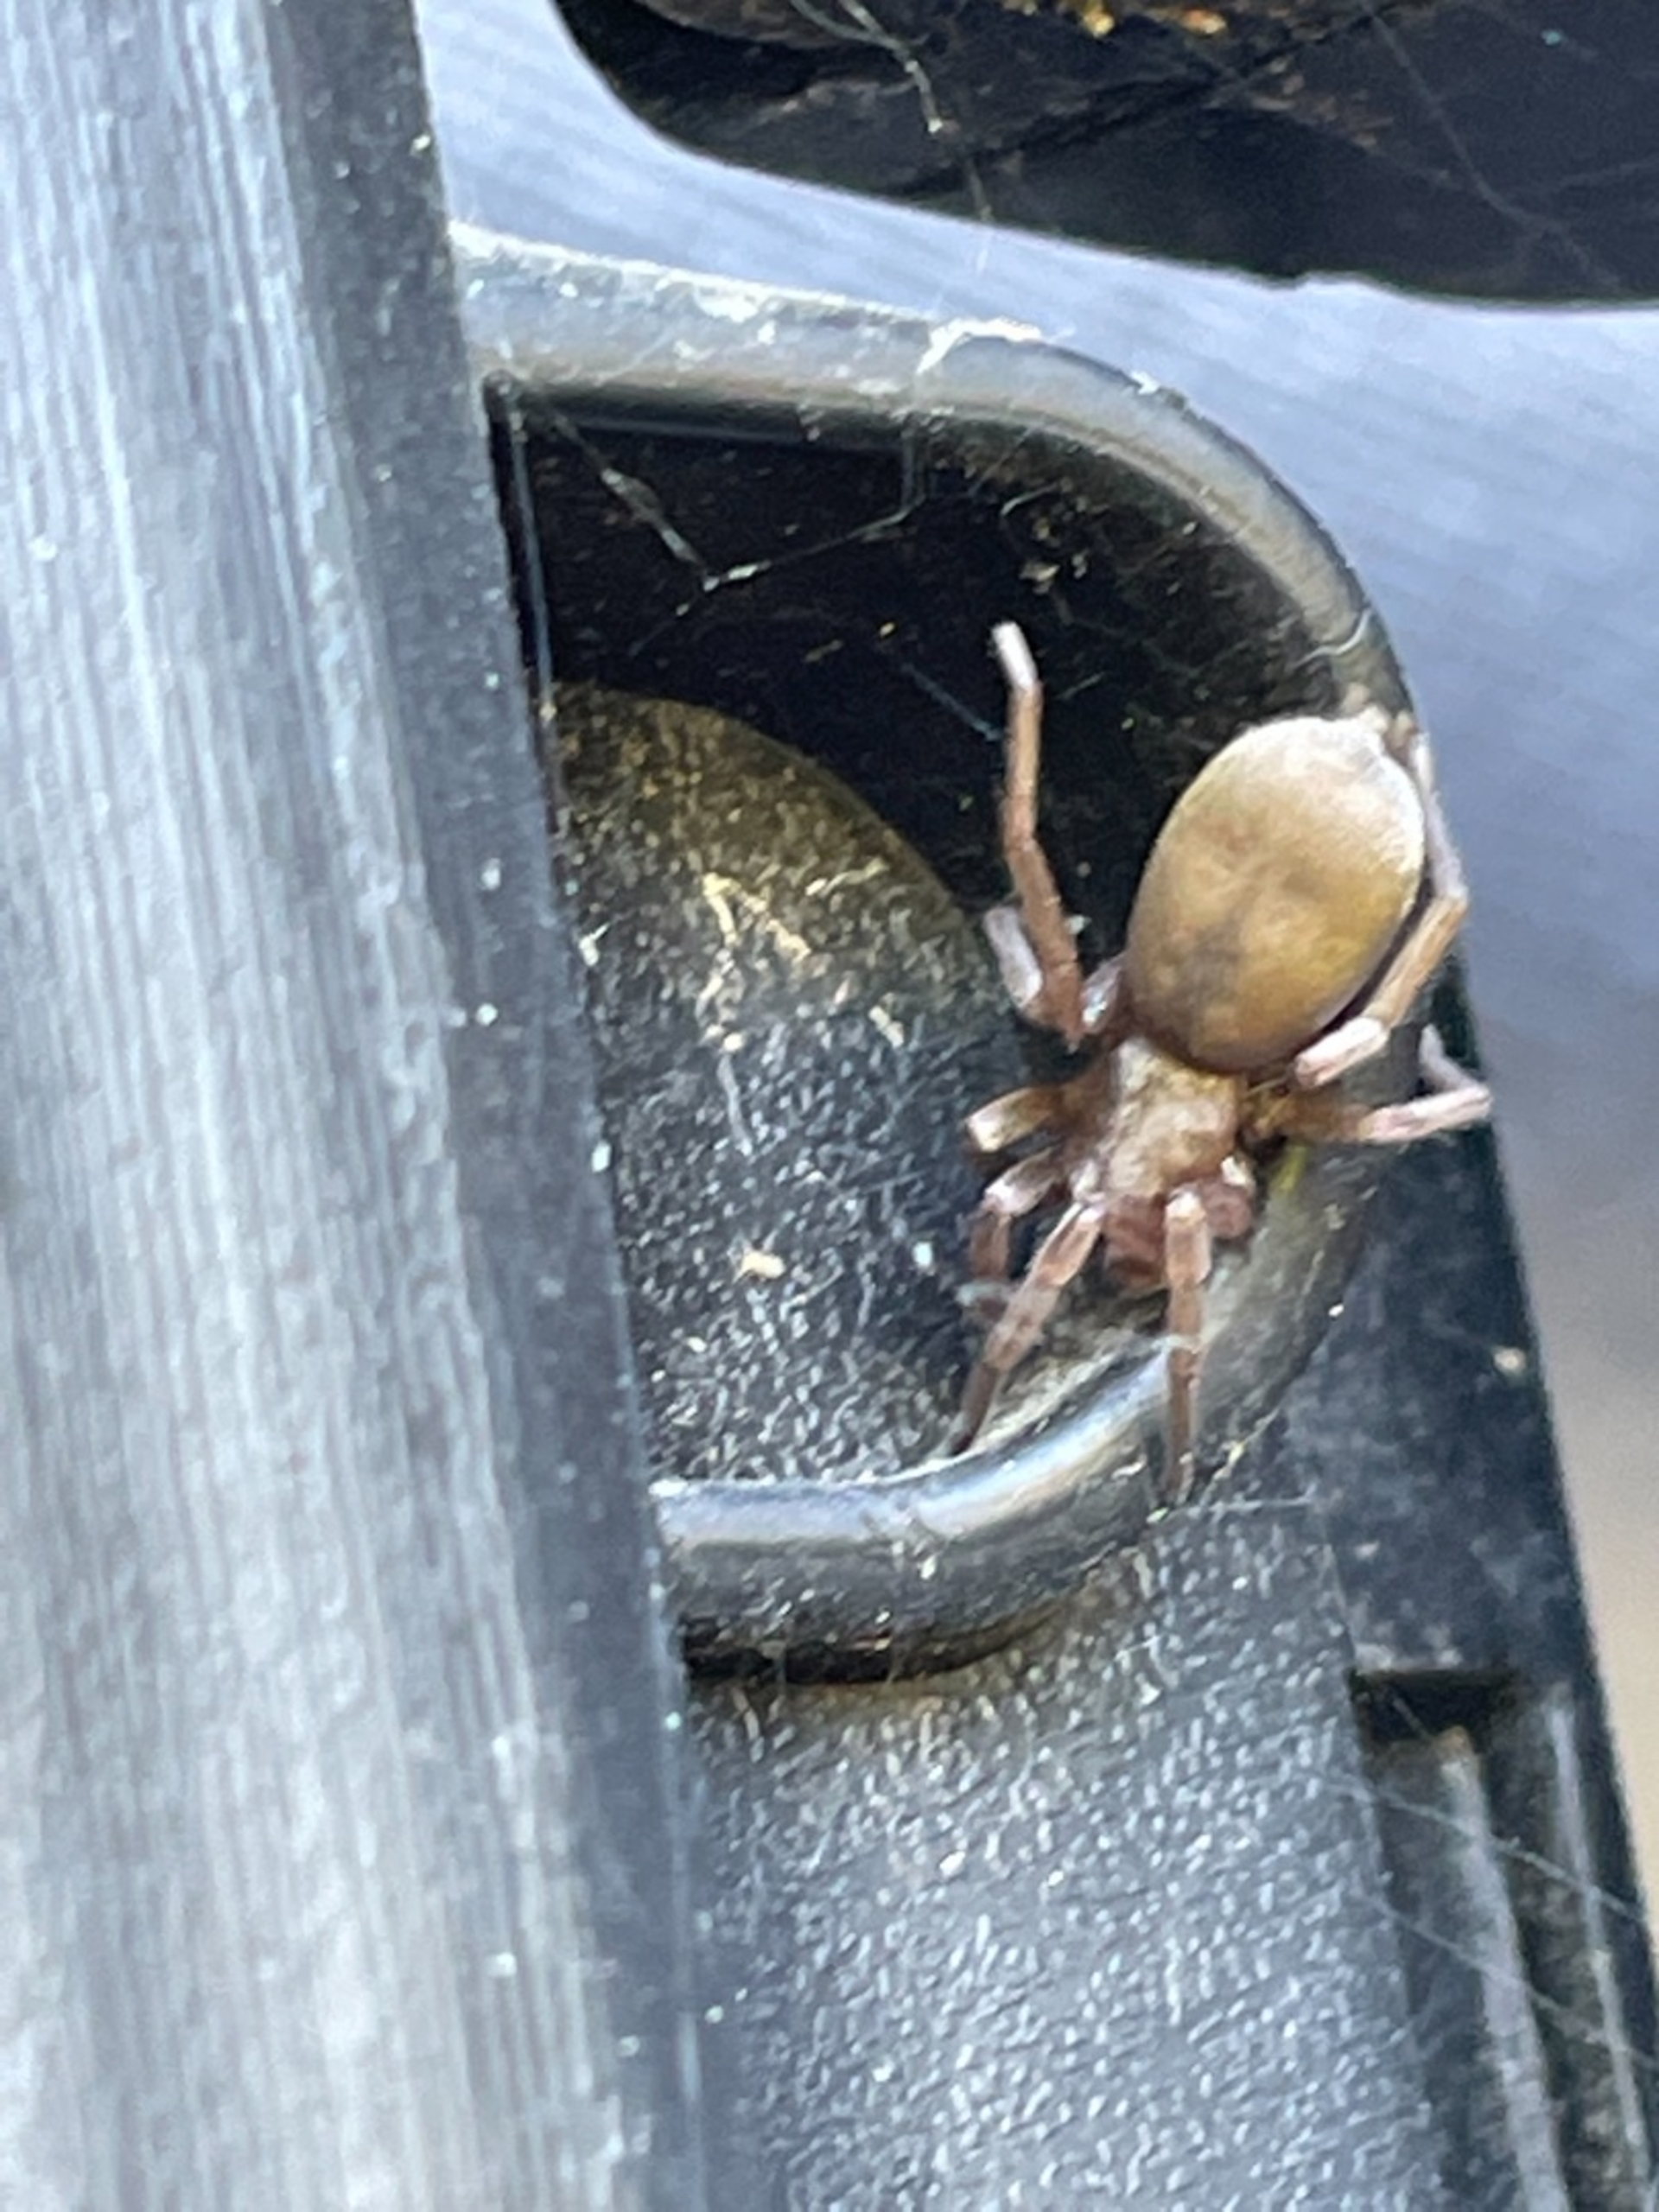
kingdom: Animalia
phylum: Arthropoda
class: Arachnida
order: Araneae
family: Gnaphosidae
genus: Scotophaeus
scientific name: Scotophaeus
